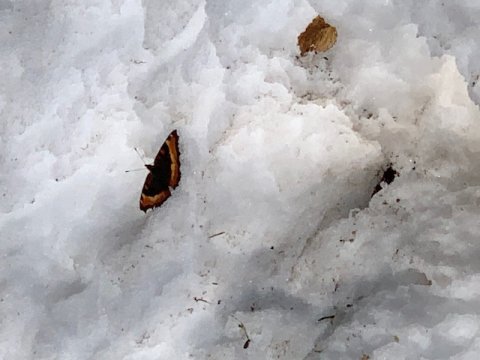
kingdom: Animalia
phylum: Arthropoda
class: Insecta
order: Lepidoptera
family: Nymphalidae
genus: Aglais
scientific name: Aglais milberti
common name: Milbert's Tortoiseshell
